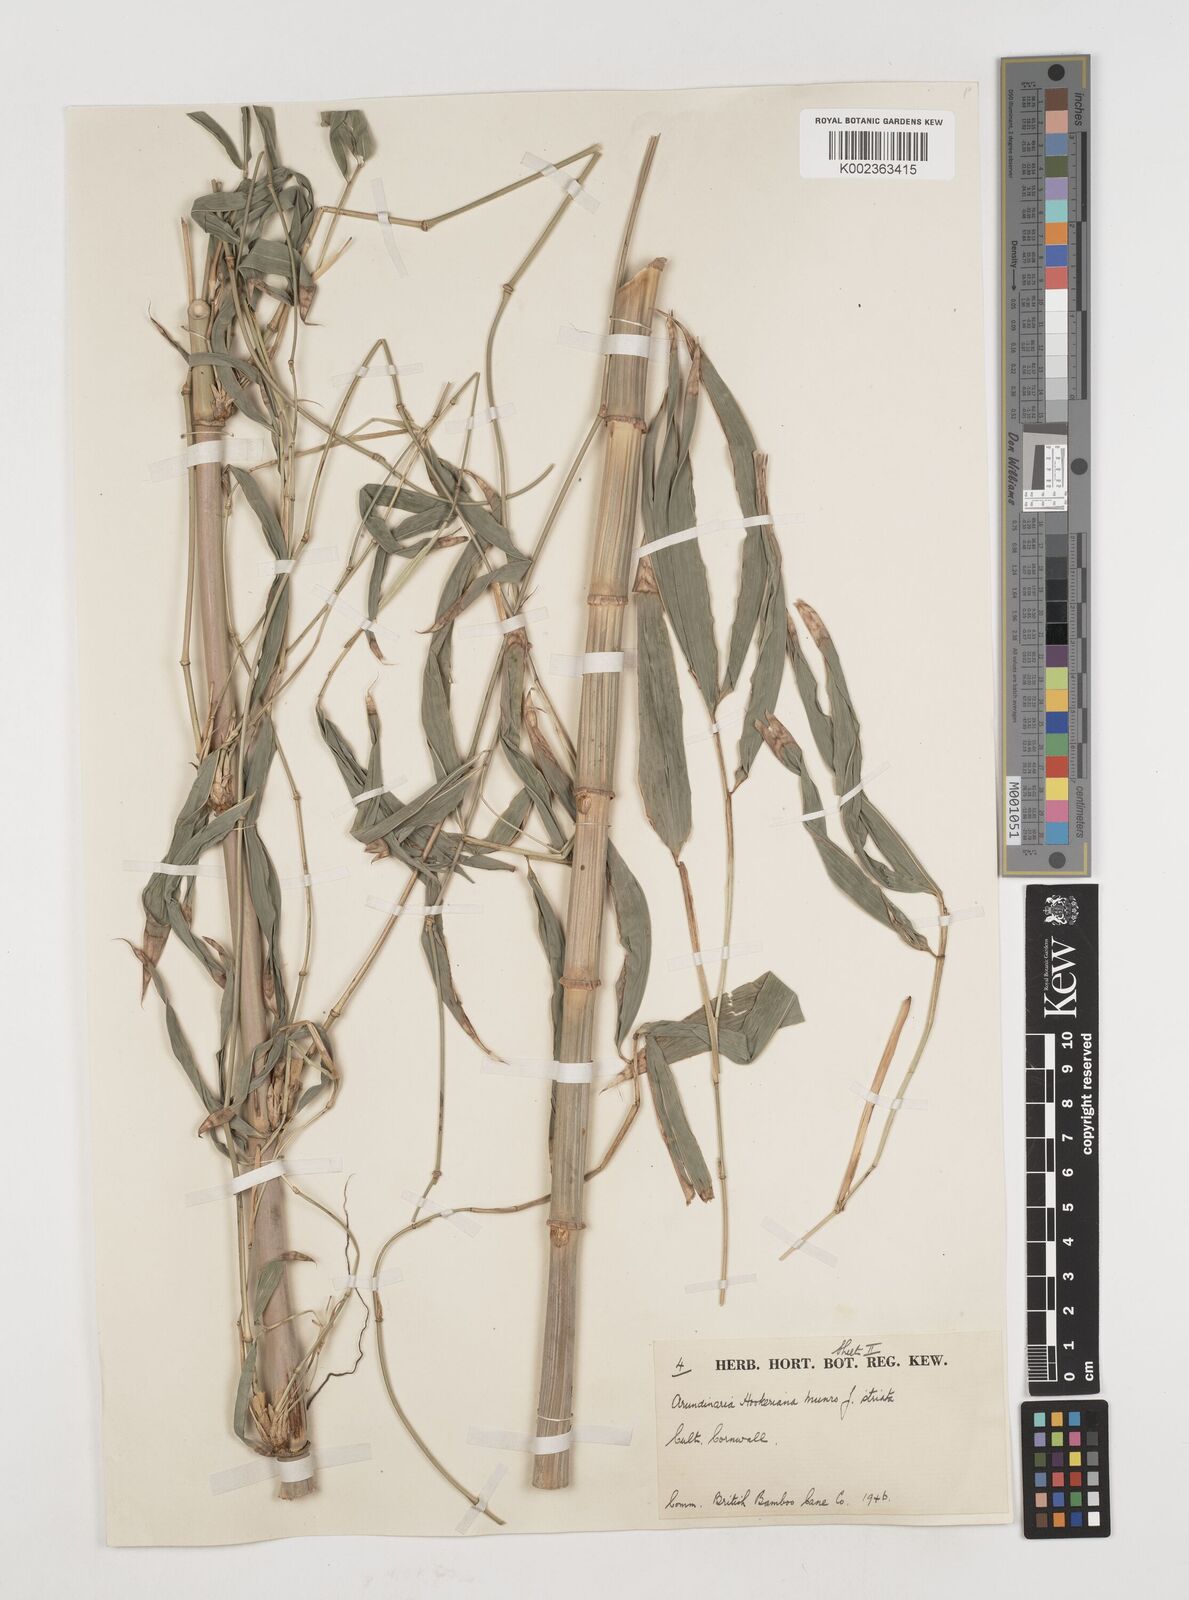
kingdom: Plantae
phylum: Tracheophyta
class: Liliopsida
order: Poales
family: Poaceae
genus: Himalayacalamus
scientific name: Himalayacalamus falconeri
